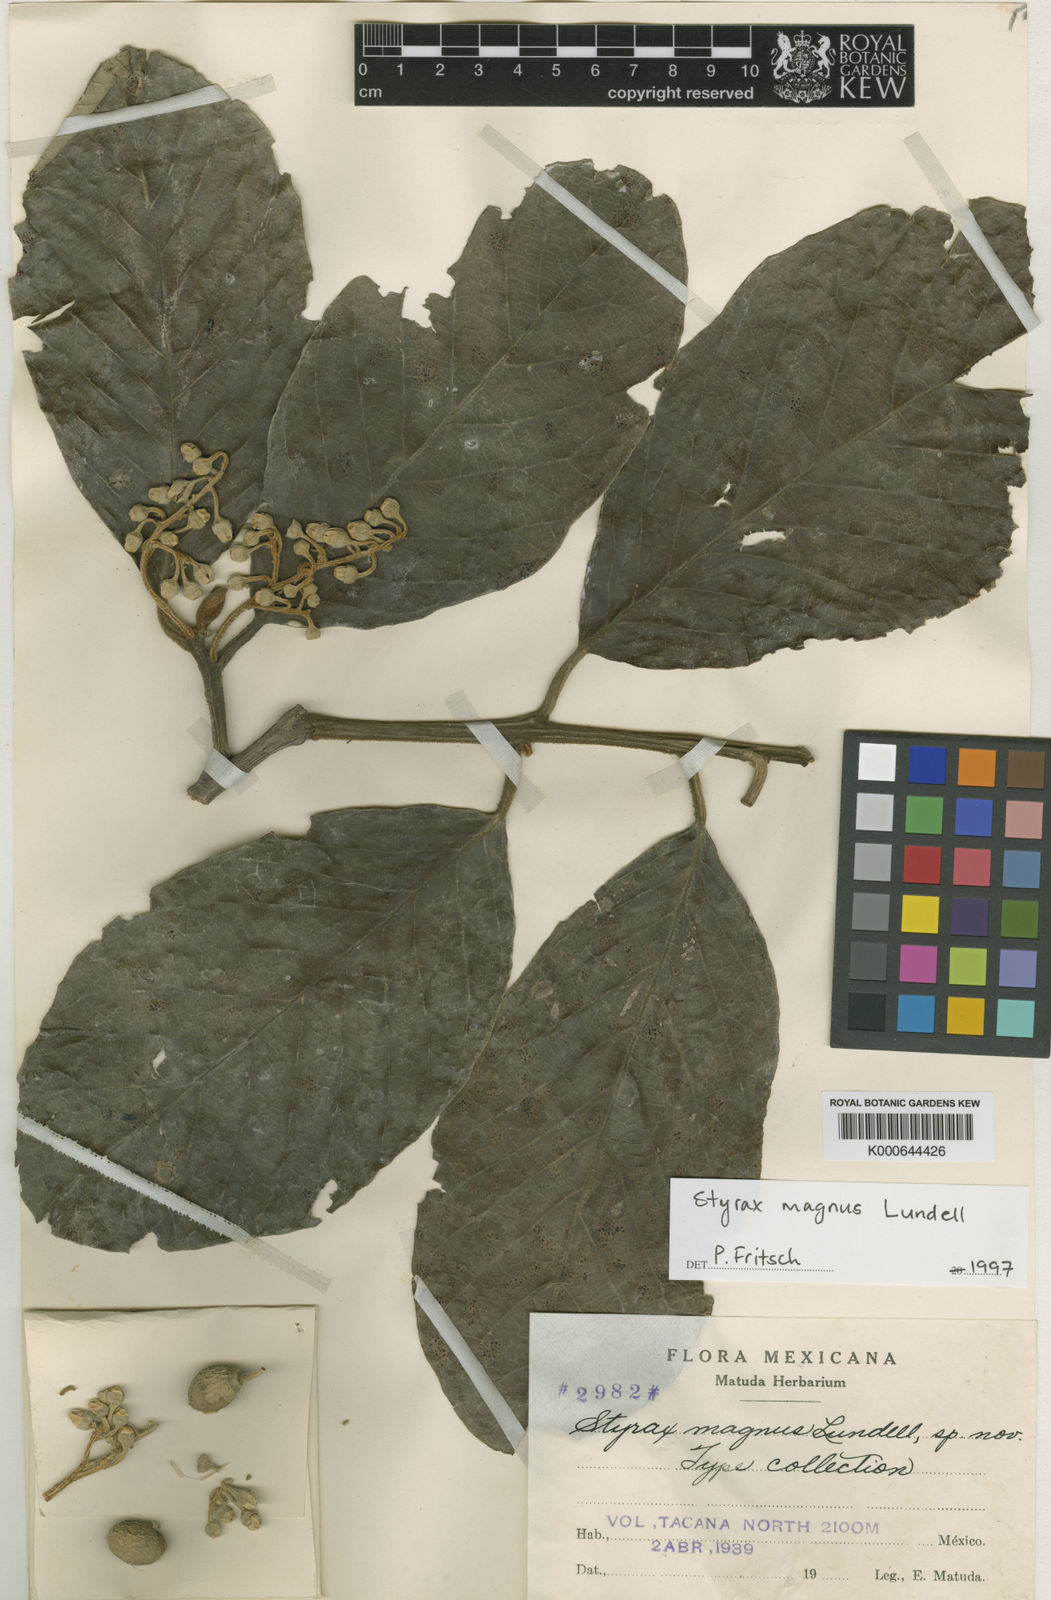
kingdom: Plantae
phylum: Tracheophyta
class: Magnoliopsida
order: Ericales
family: Styracaceae
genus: Styrax
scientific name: Styrax magnus
